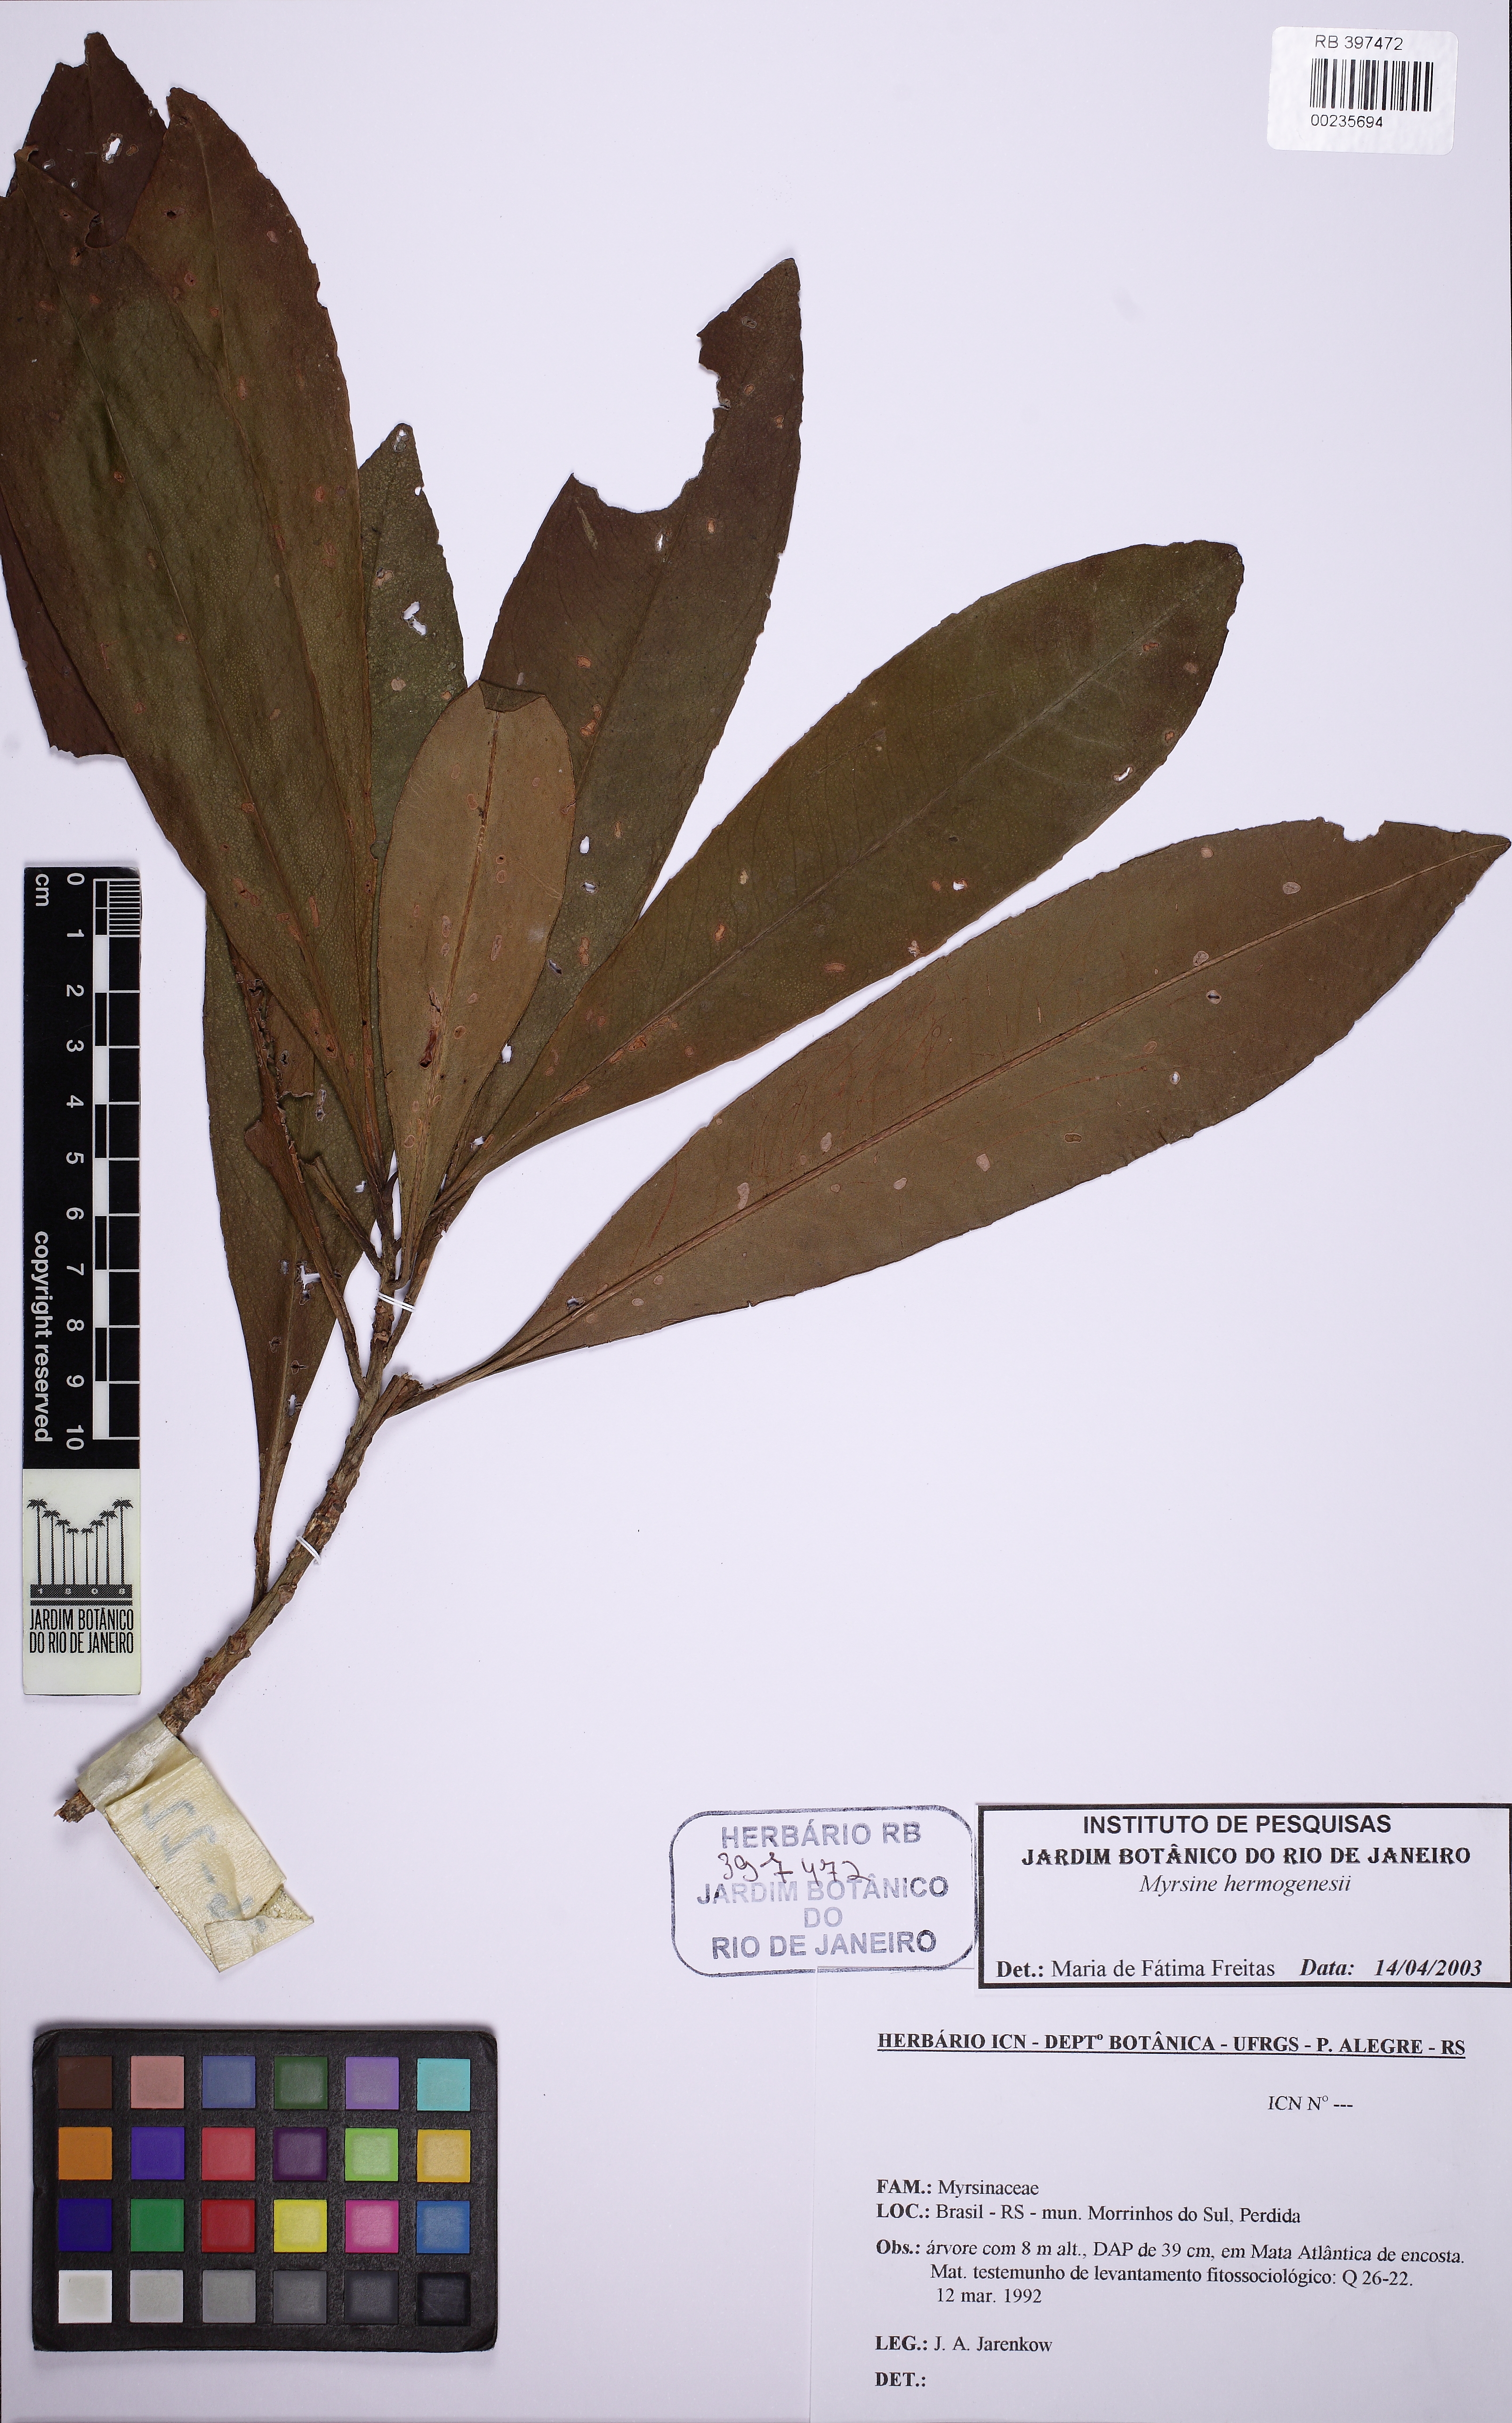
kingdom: Plantae
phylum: Tracheophyta
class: Magnoliopsida
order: Ericales
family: Primulaceae
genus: Myrsine
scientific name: Myrsine hermogenesii
